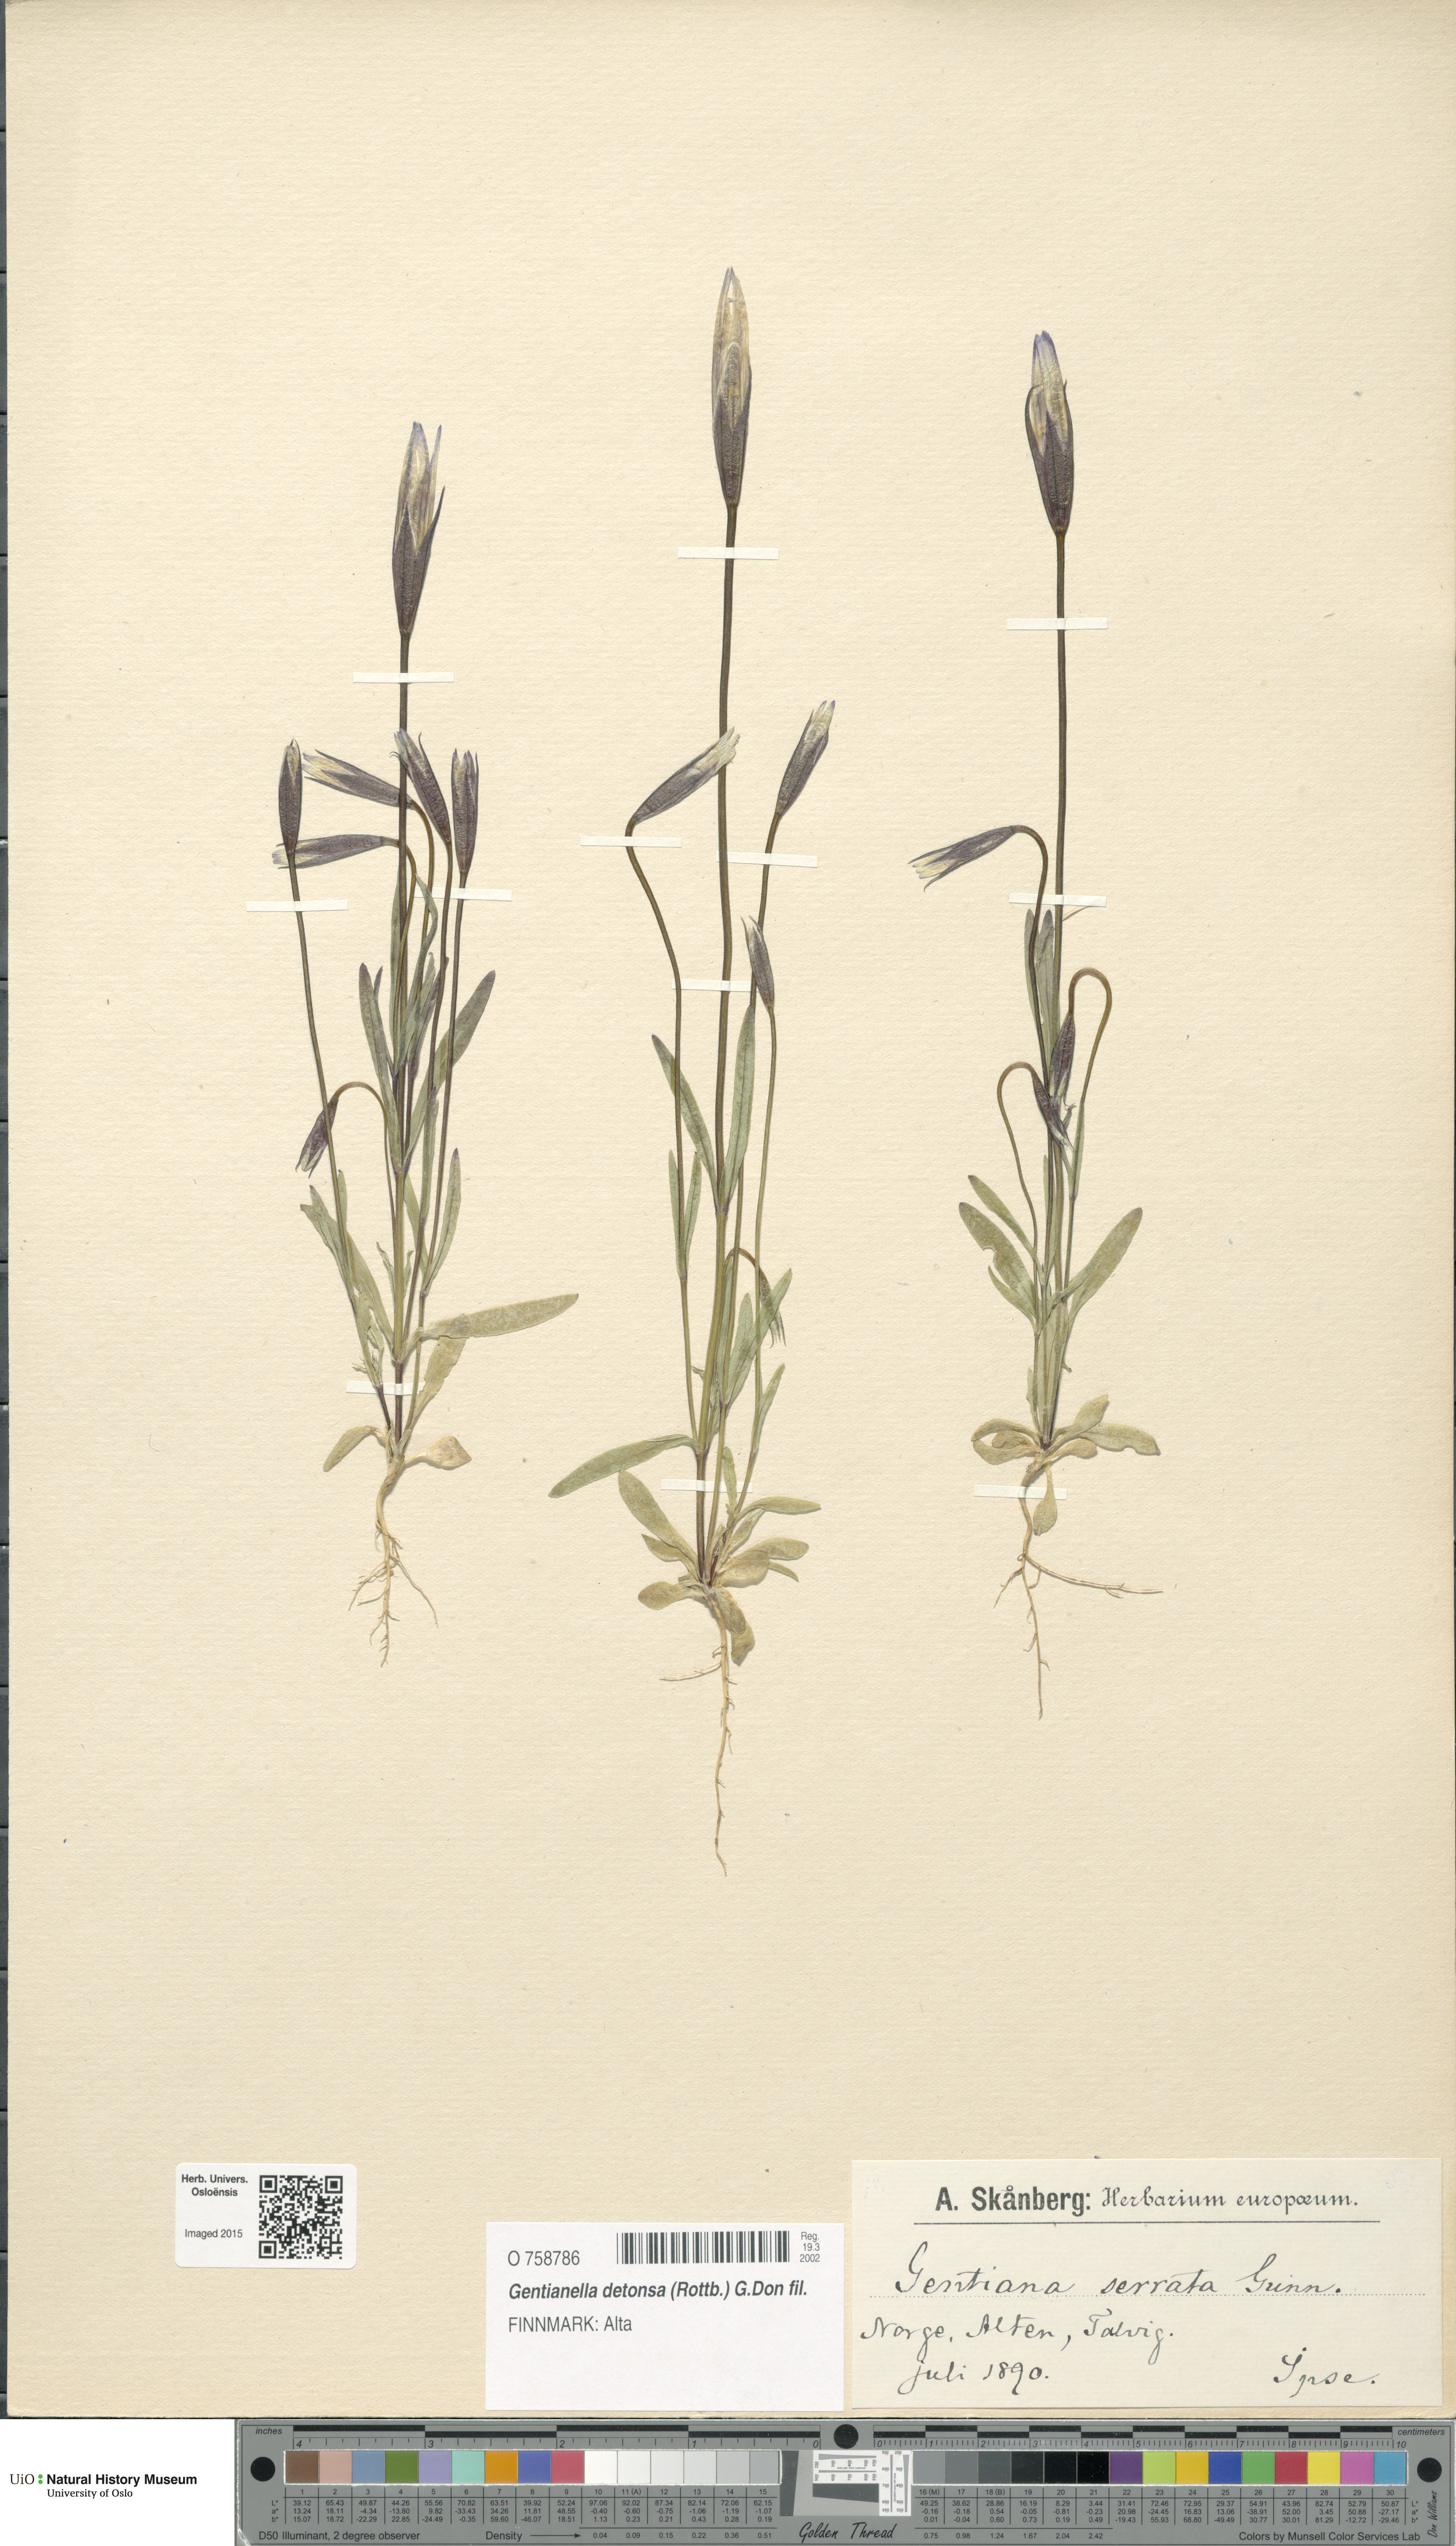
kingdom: Plantae
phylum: Tracheophyta
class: Magnoliopsida
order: Gentianales
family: Gentianaceae
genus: Gentianopsis
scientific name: Gentianopsis detonsa
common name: Fringed-gentian
